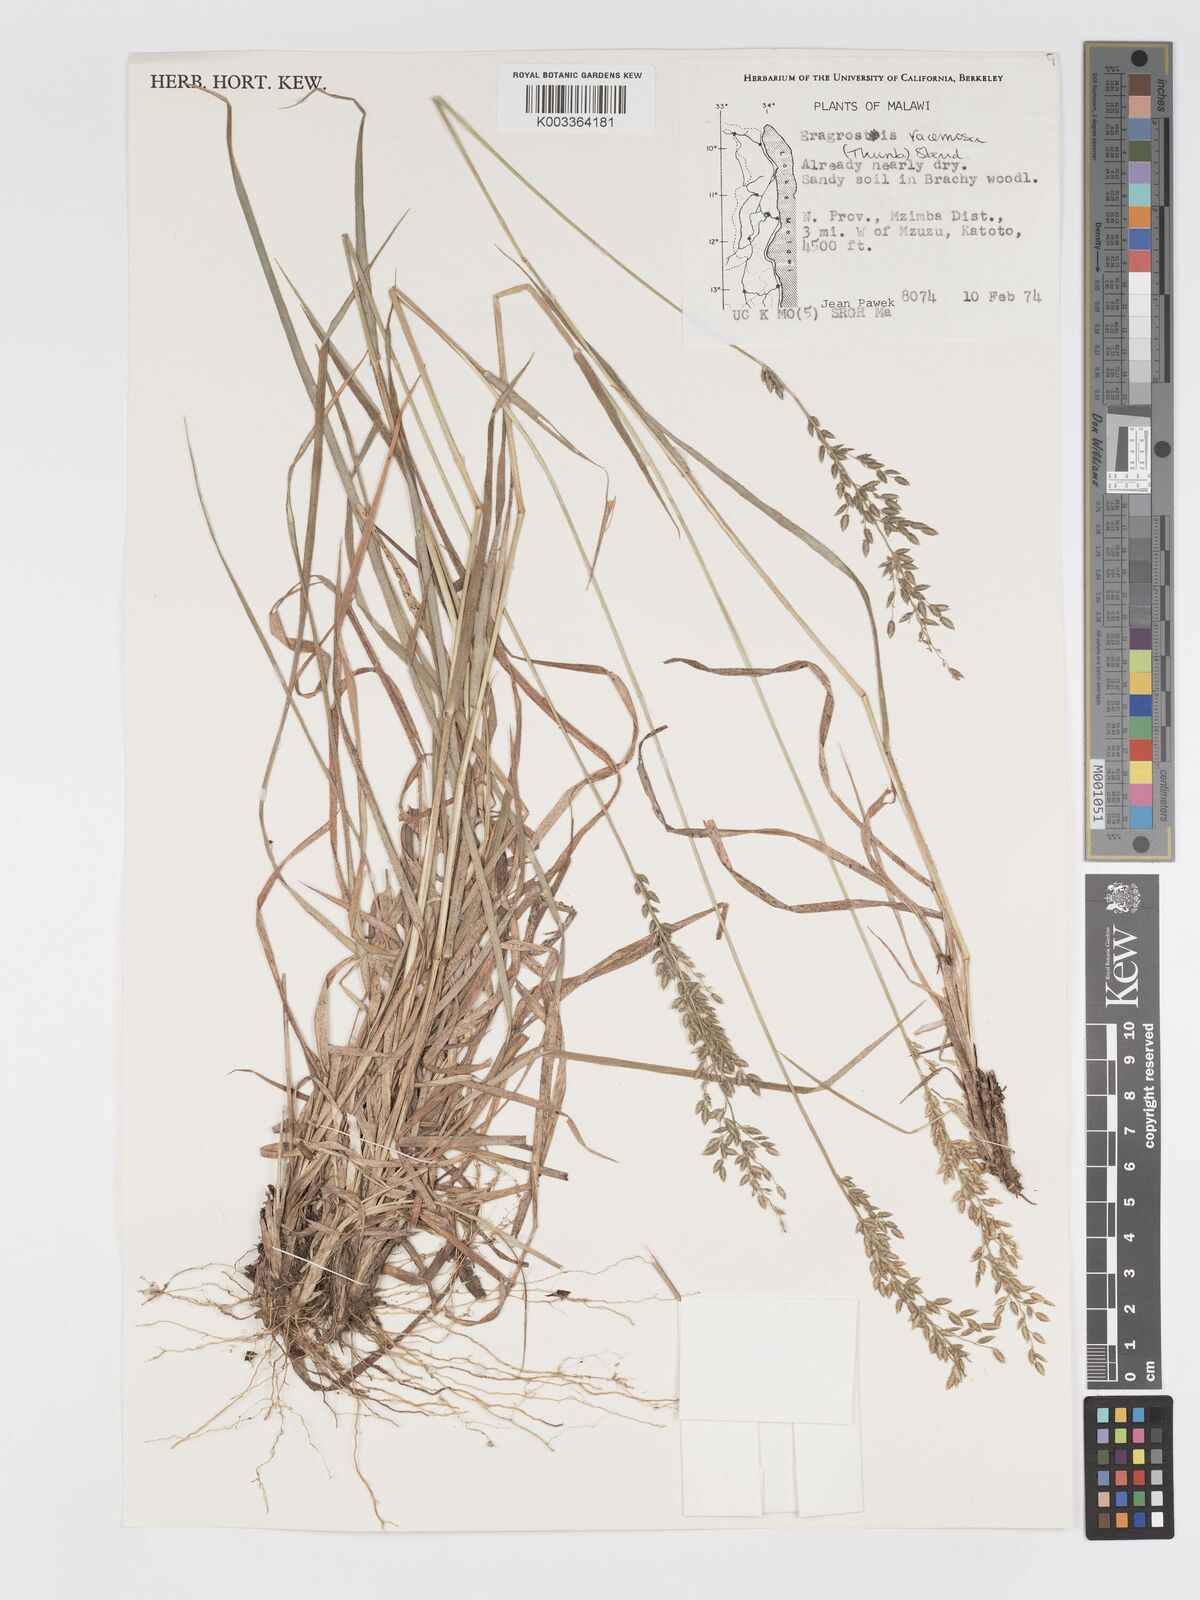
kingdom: Plantae
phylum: Tracheophyta
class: Liliopsida
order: Poales
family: Poaceae
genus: Eragrostis
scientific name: Eragrostis racemosa
